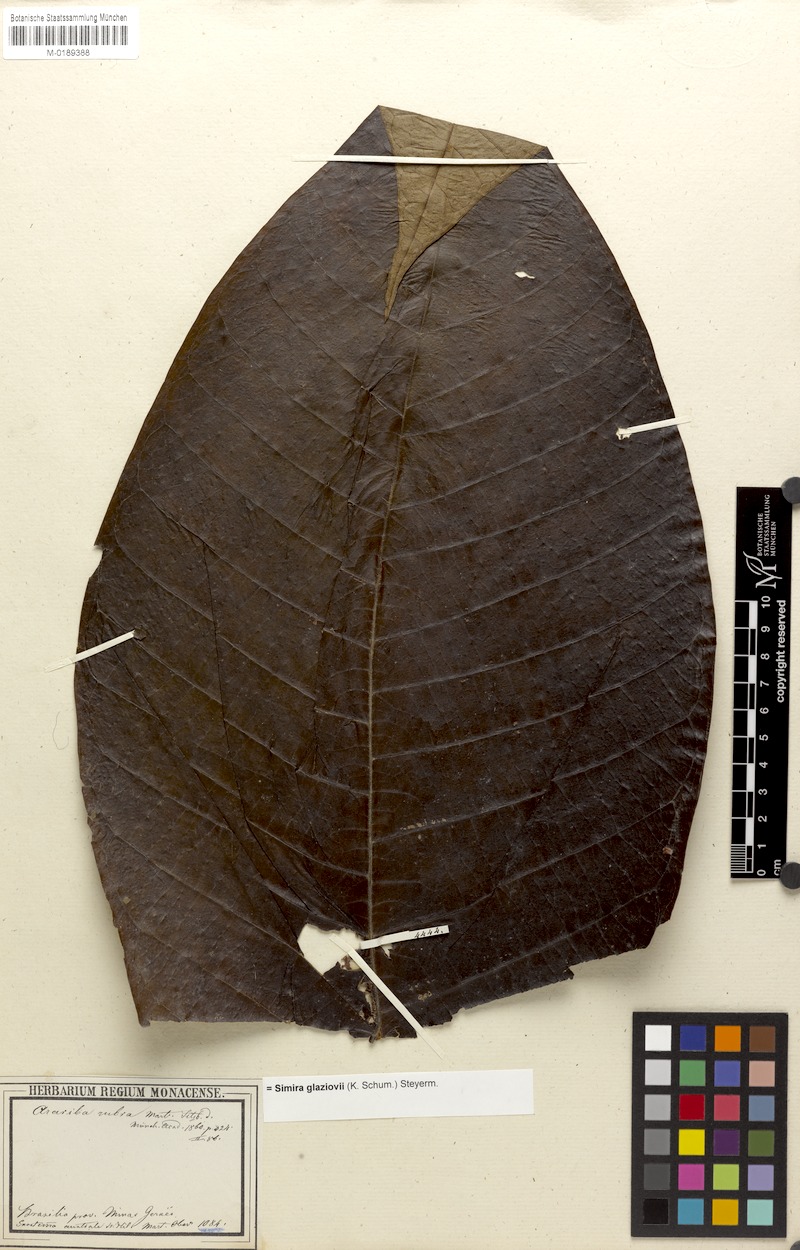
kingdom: Plantae
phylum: Tracheophyta
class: Magnoliopsida
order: Gentianales
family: Rubiaceae
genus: Simira
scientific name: Simira alba
